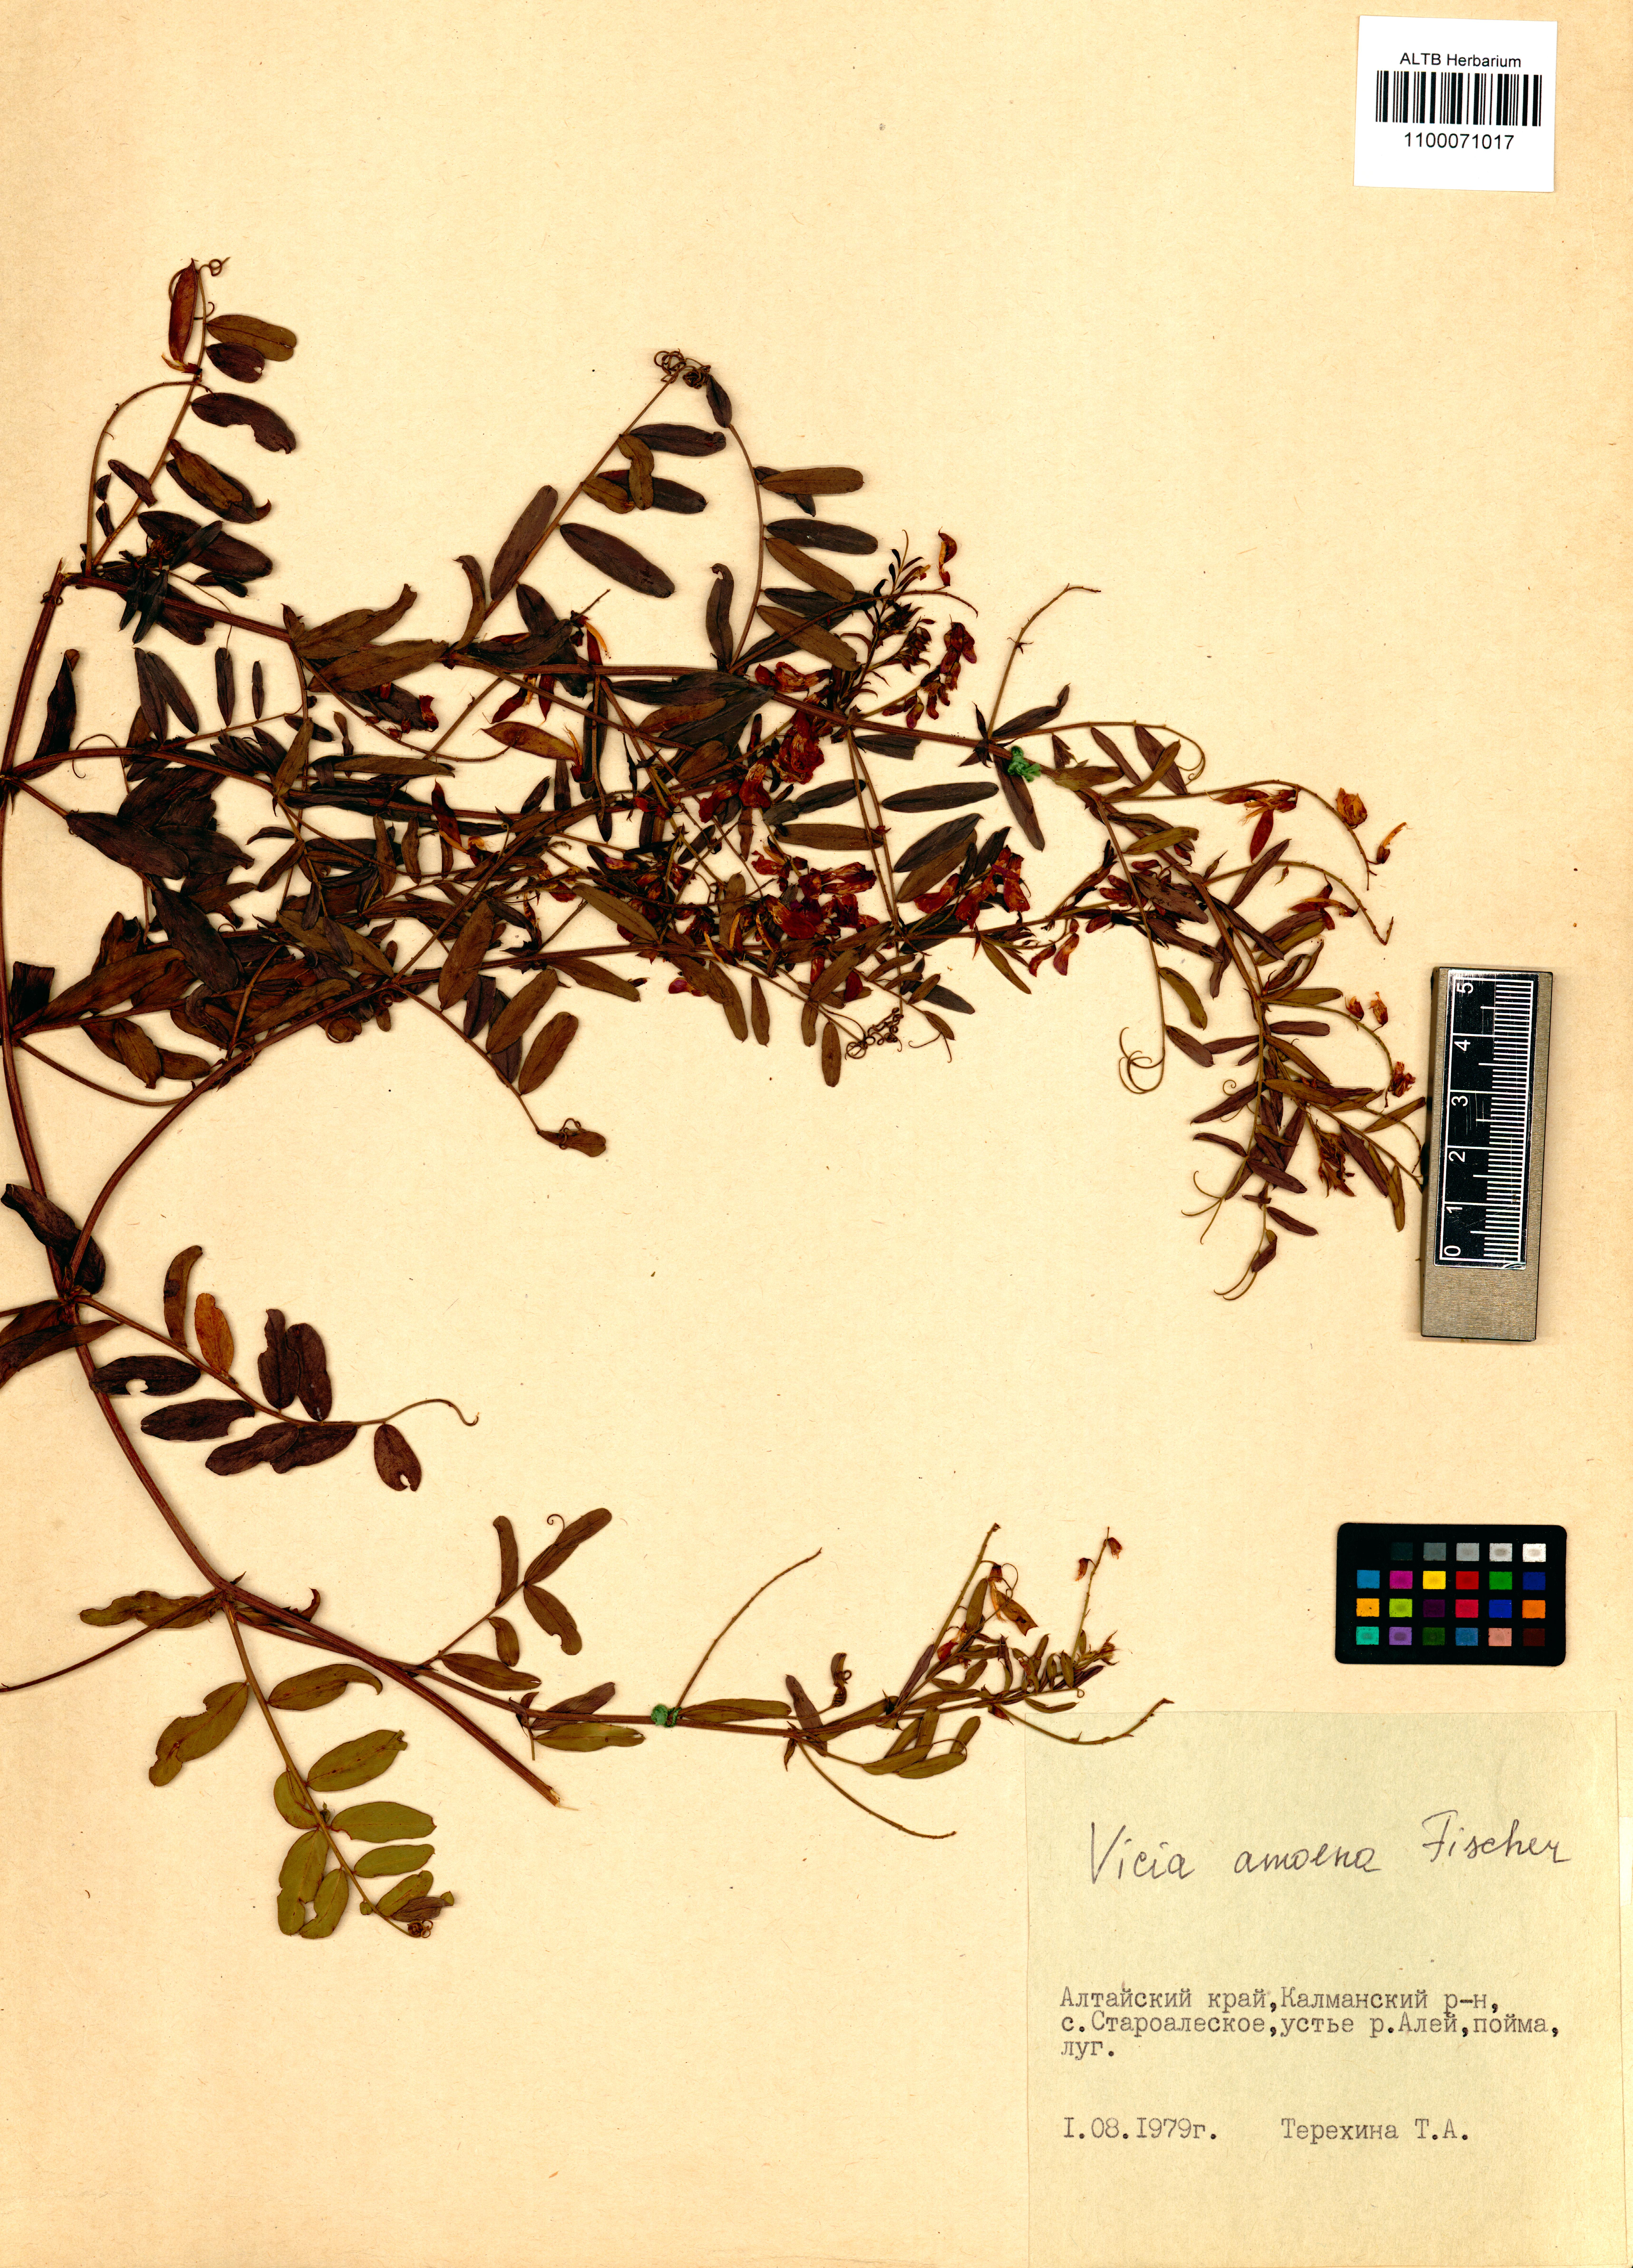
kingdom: Plantae
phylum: Tracheophyta
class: Magnoliopsida
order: Fabales
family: Fabaceae
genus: Vicia
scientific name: Vicia amoena
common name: Cheder ebs
